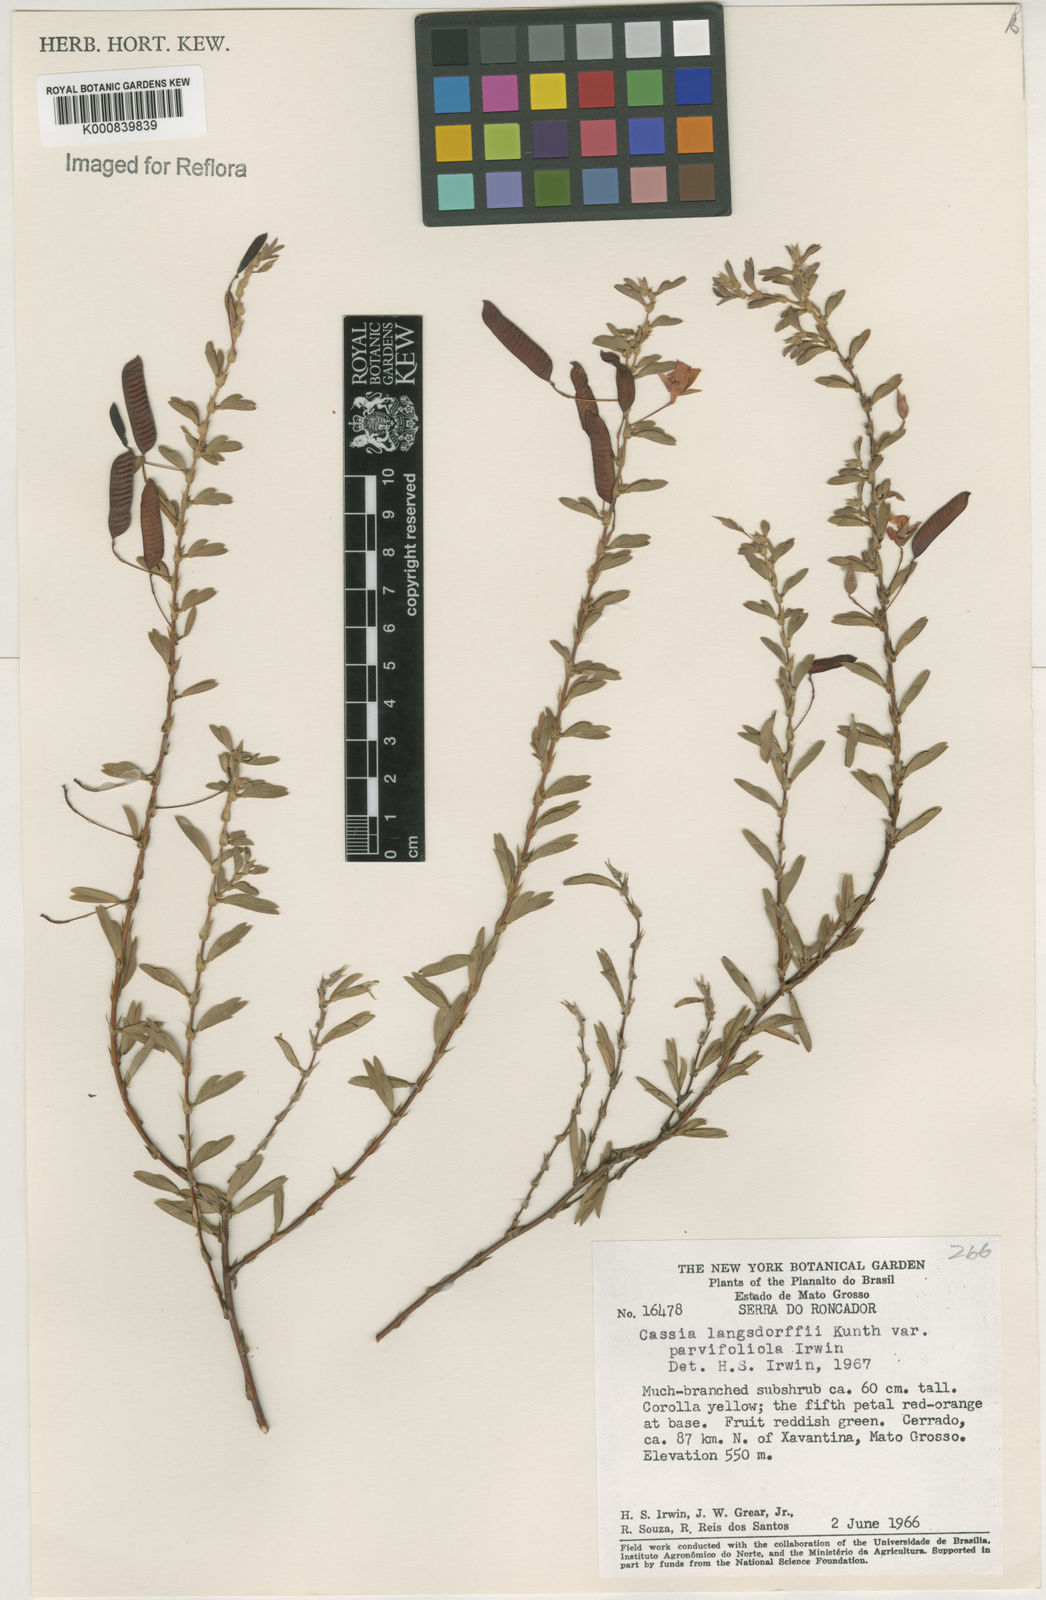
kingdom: Plantae
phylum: Tracheophyta
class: Magnoliopsida
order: Fabales
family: Fabaceae
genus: Chamaecrista
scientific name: Chamaecrista ramosa
